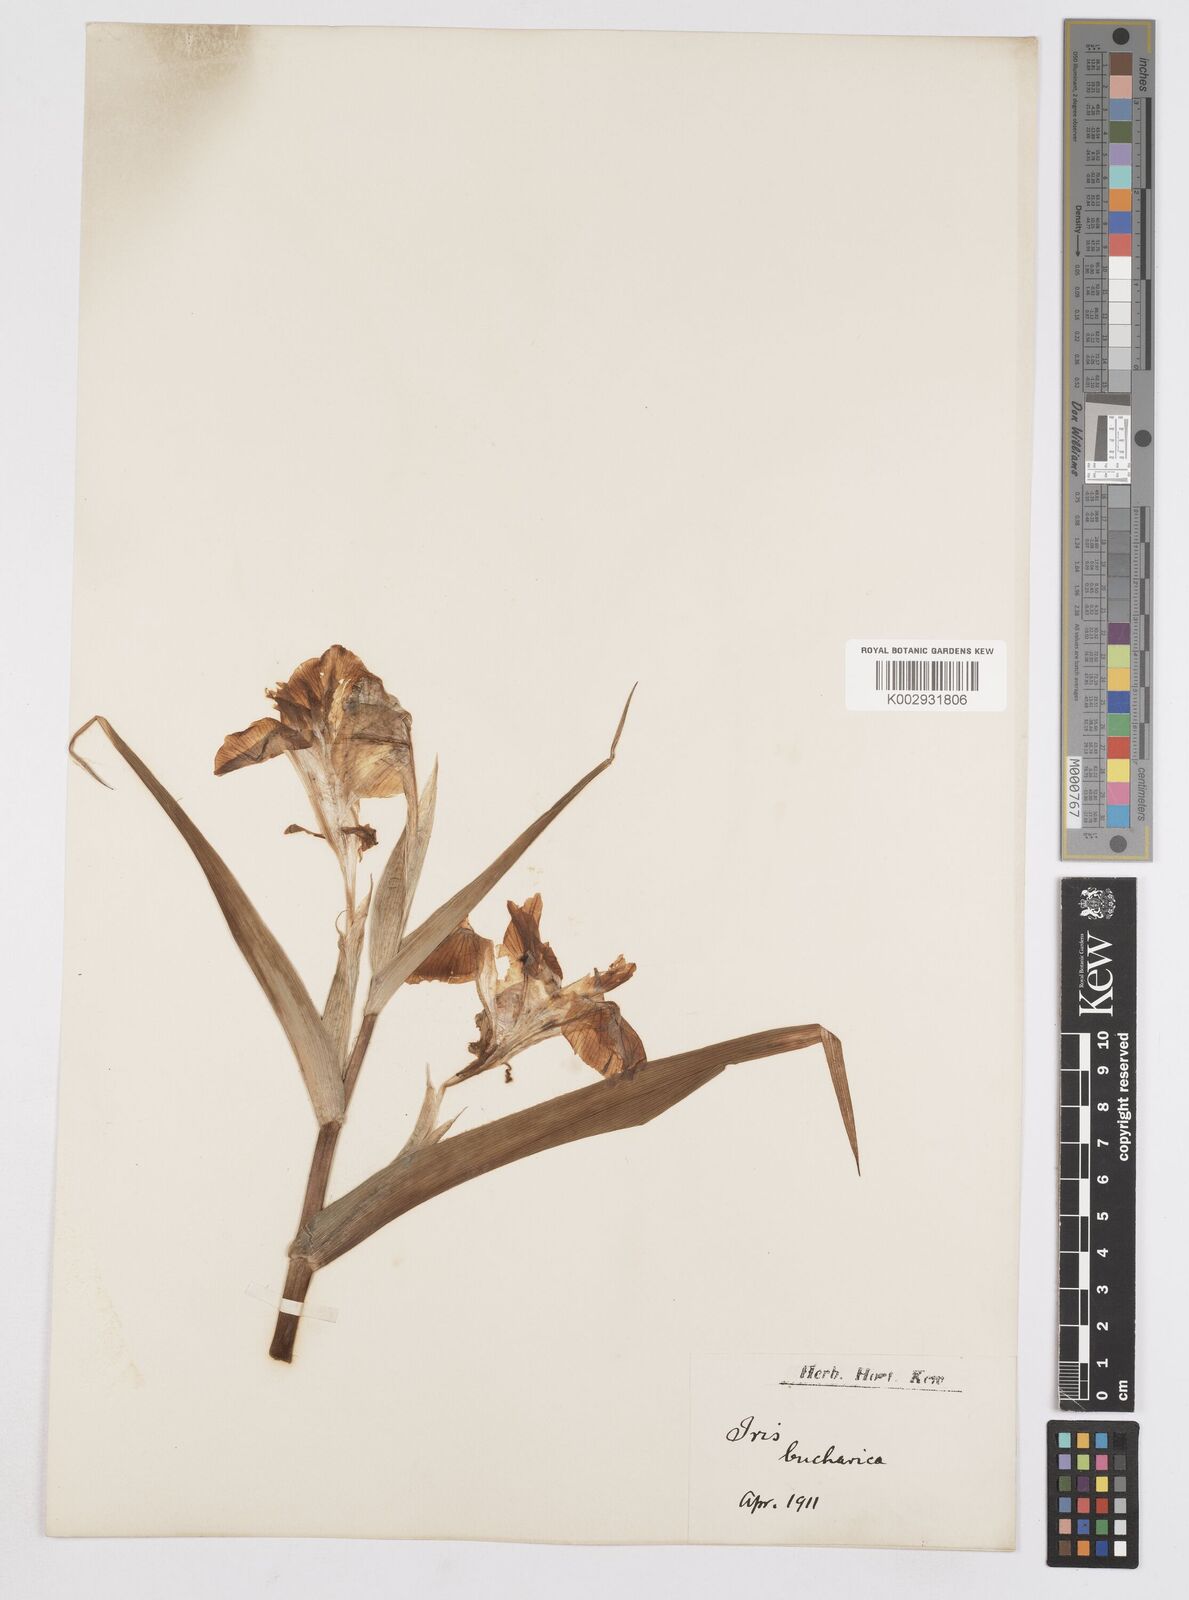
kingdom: Plantae
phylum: Tracheophyta
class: Liliopsida
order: Asparagales
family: Iridaceae
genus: Iris
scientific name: Iris bucharica
